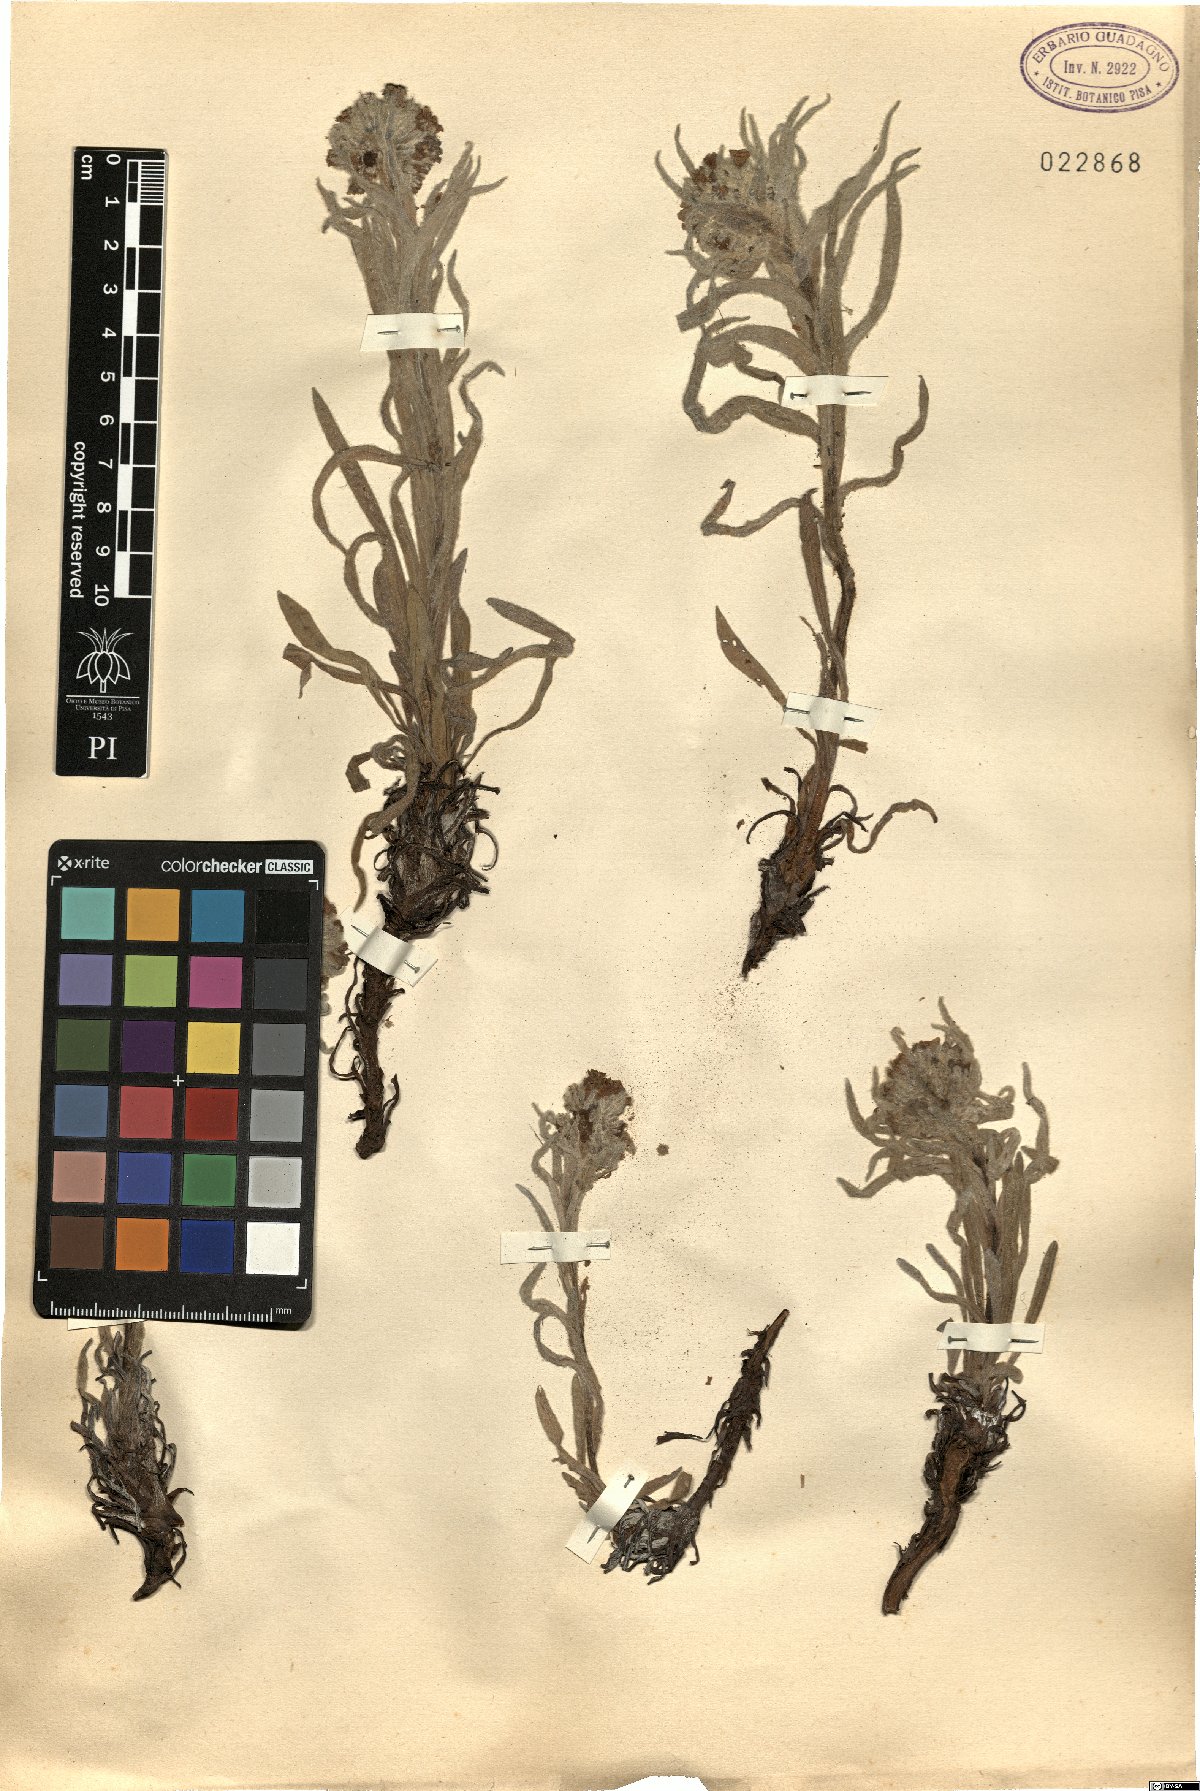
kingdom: Plantae
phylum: Tracheophyta
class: Magnoliopsida
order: Boraginales
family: Boraginaceae
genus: Cynoglossum
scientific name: Cynoglossum
